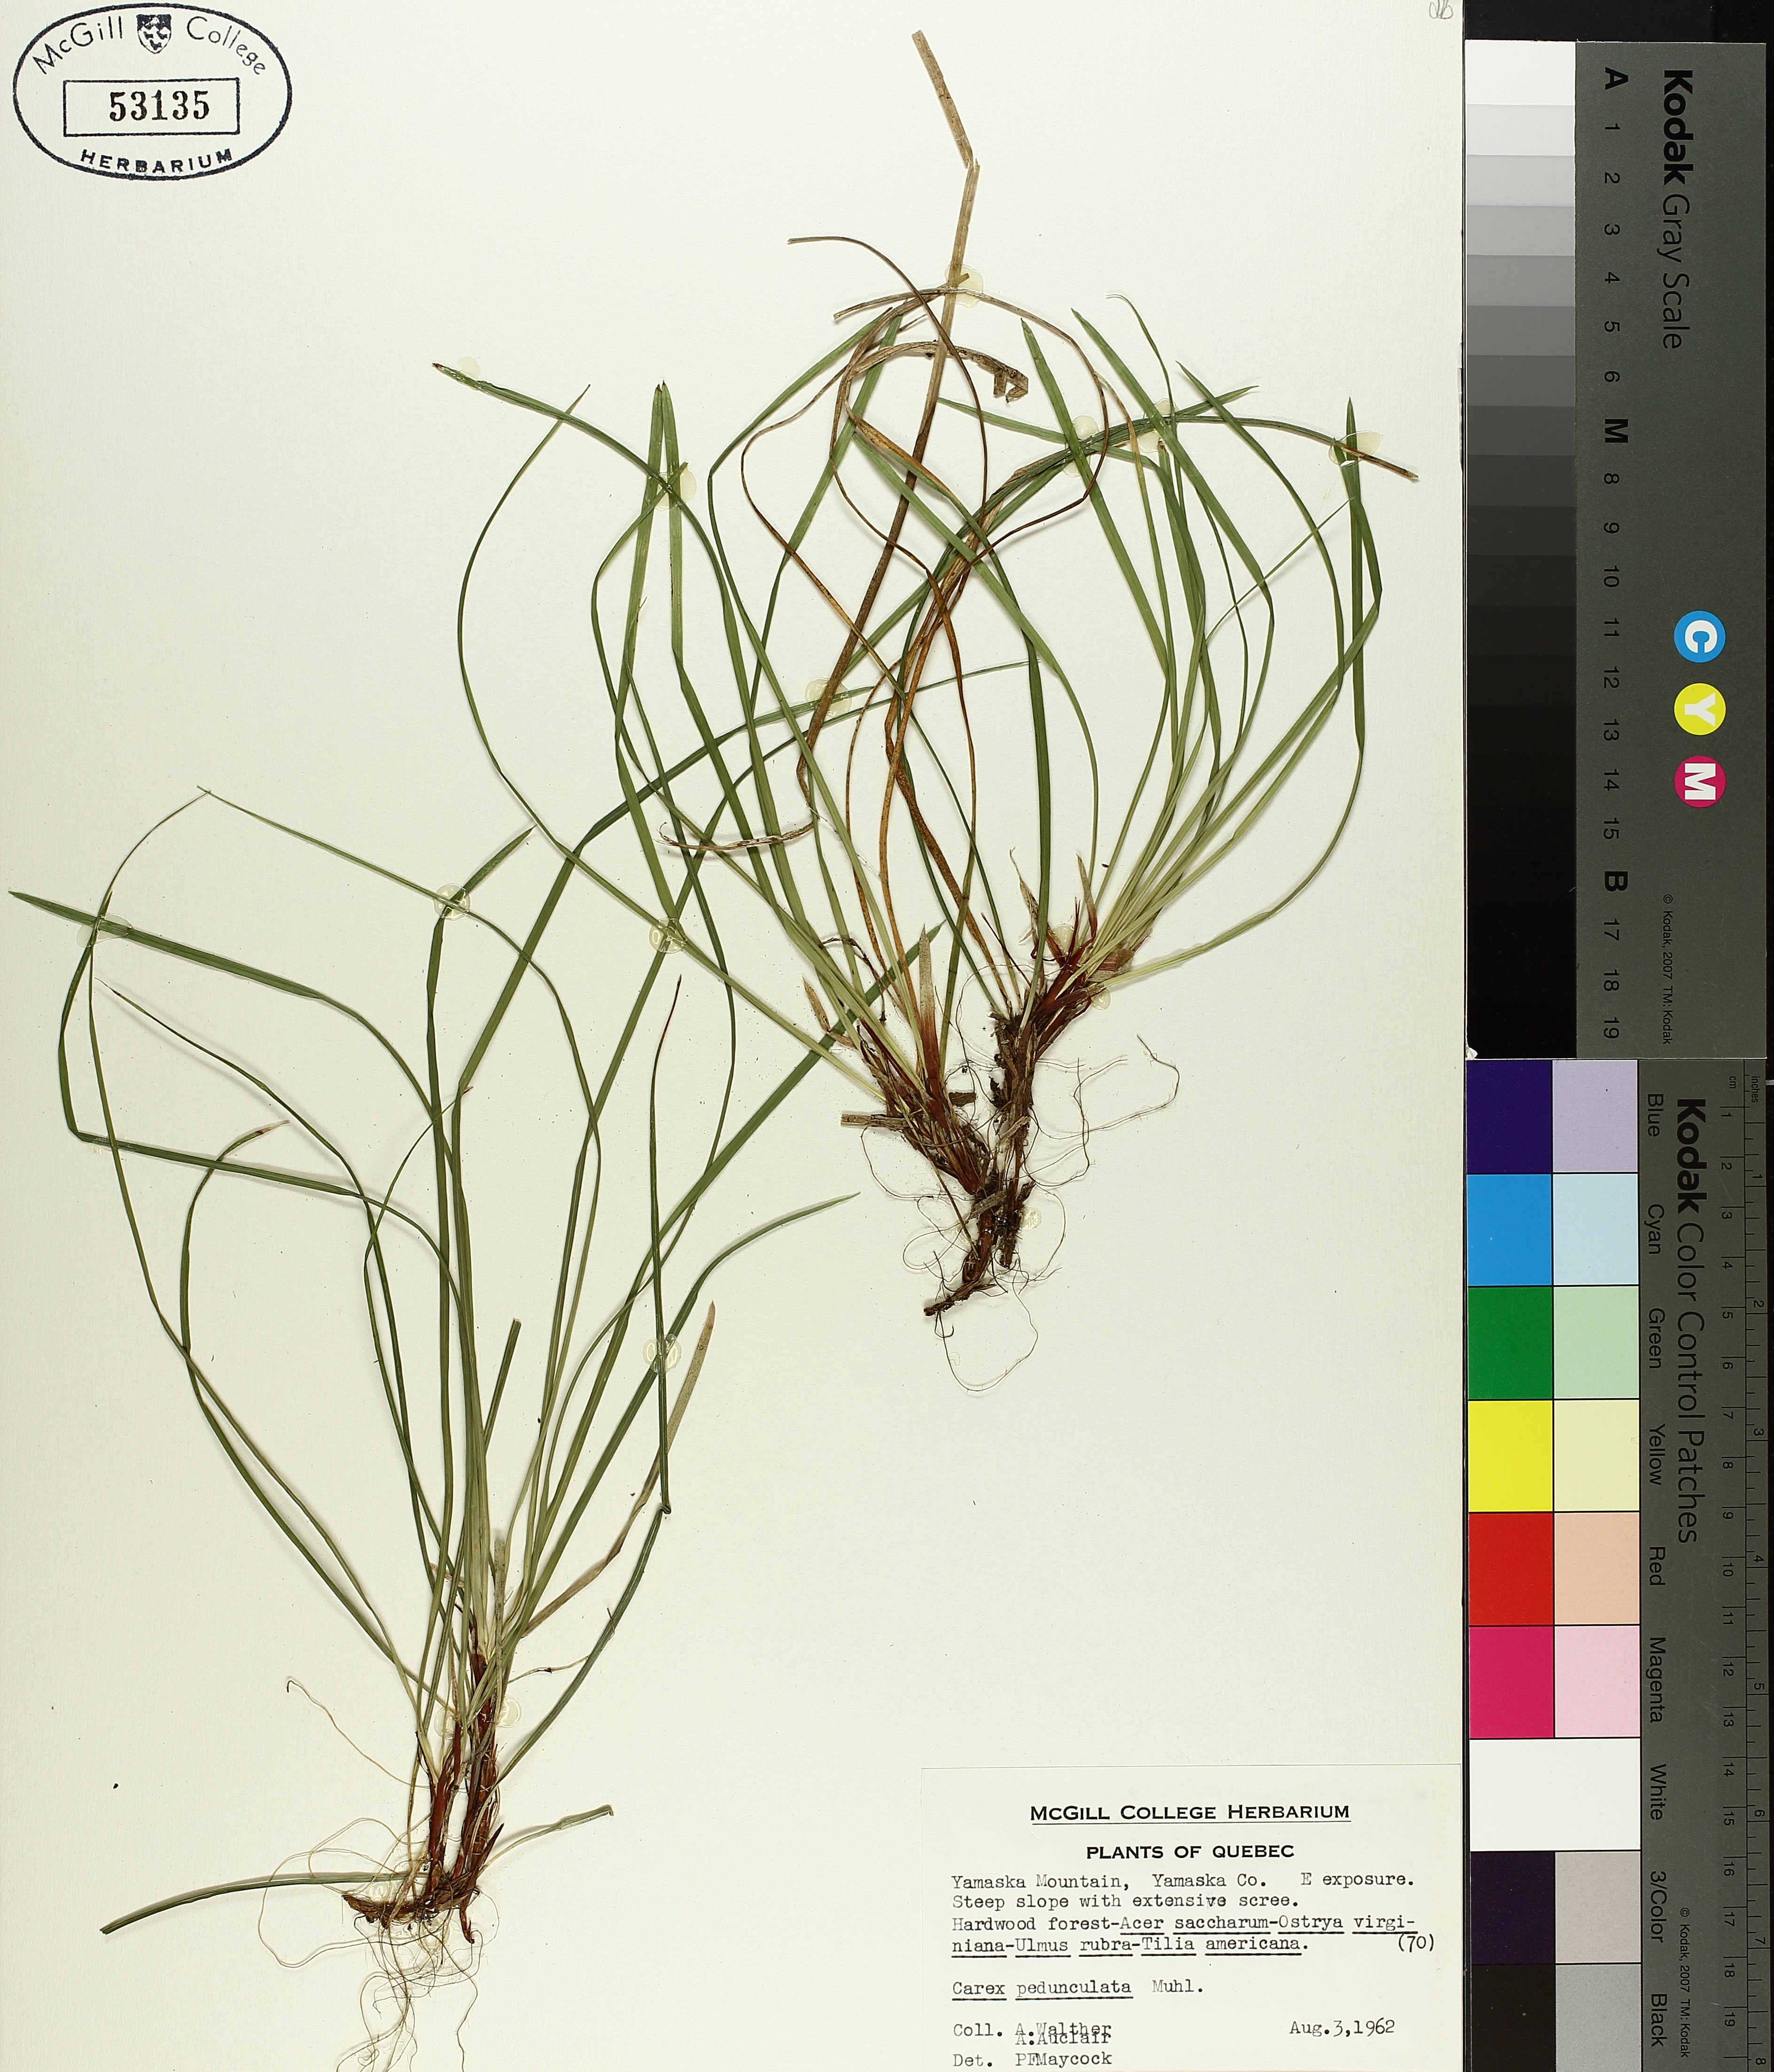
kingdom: Plantae
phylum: Tracheophyta
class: Liliopsida
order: Poales
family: Cyperaceae
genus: Carex
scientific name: Carex pedunculata
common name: Pedunculate sedge
